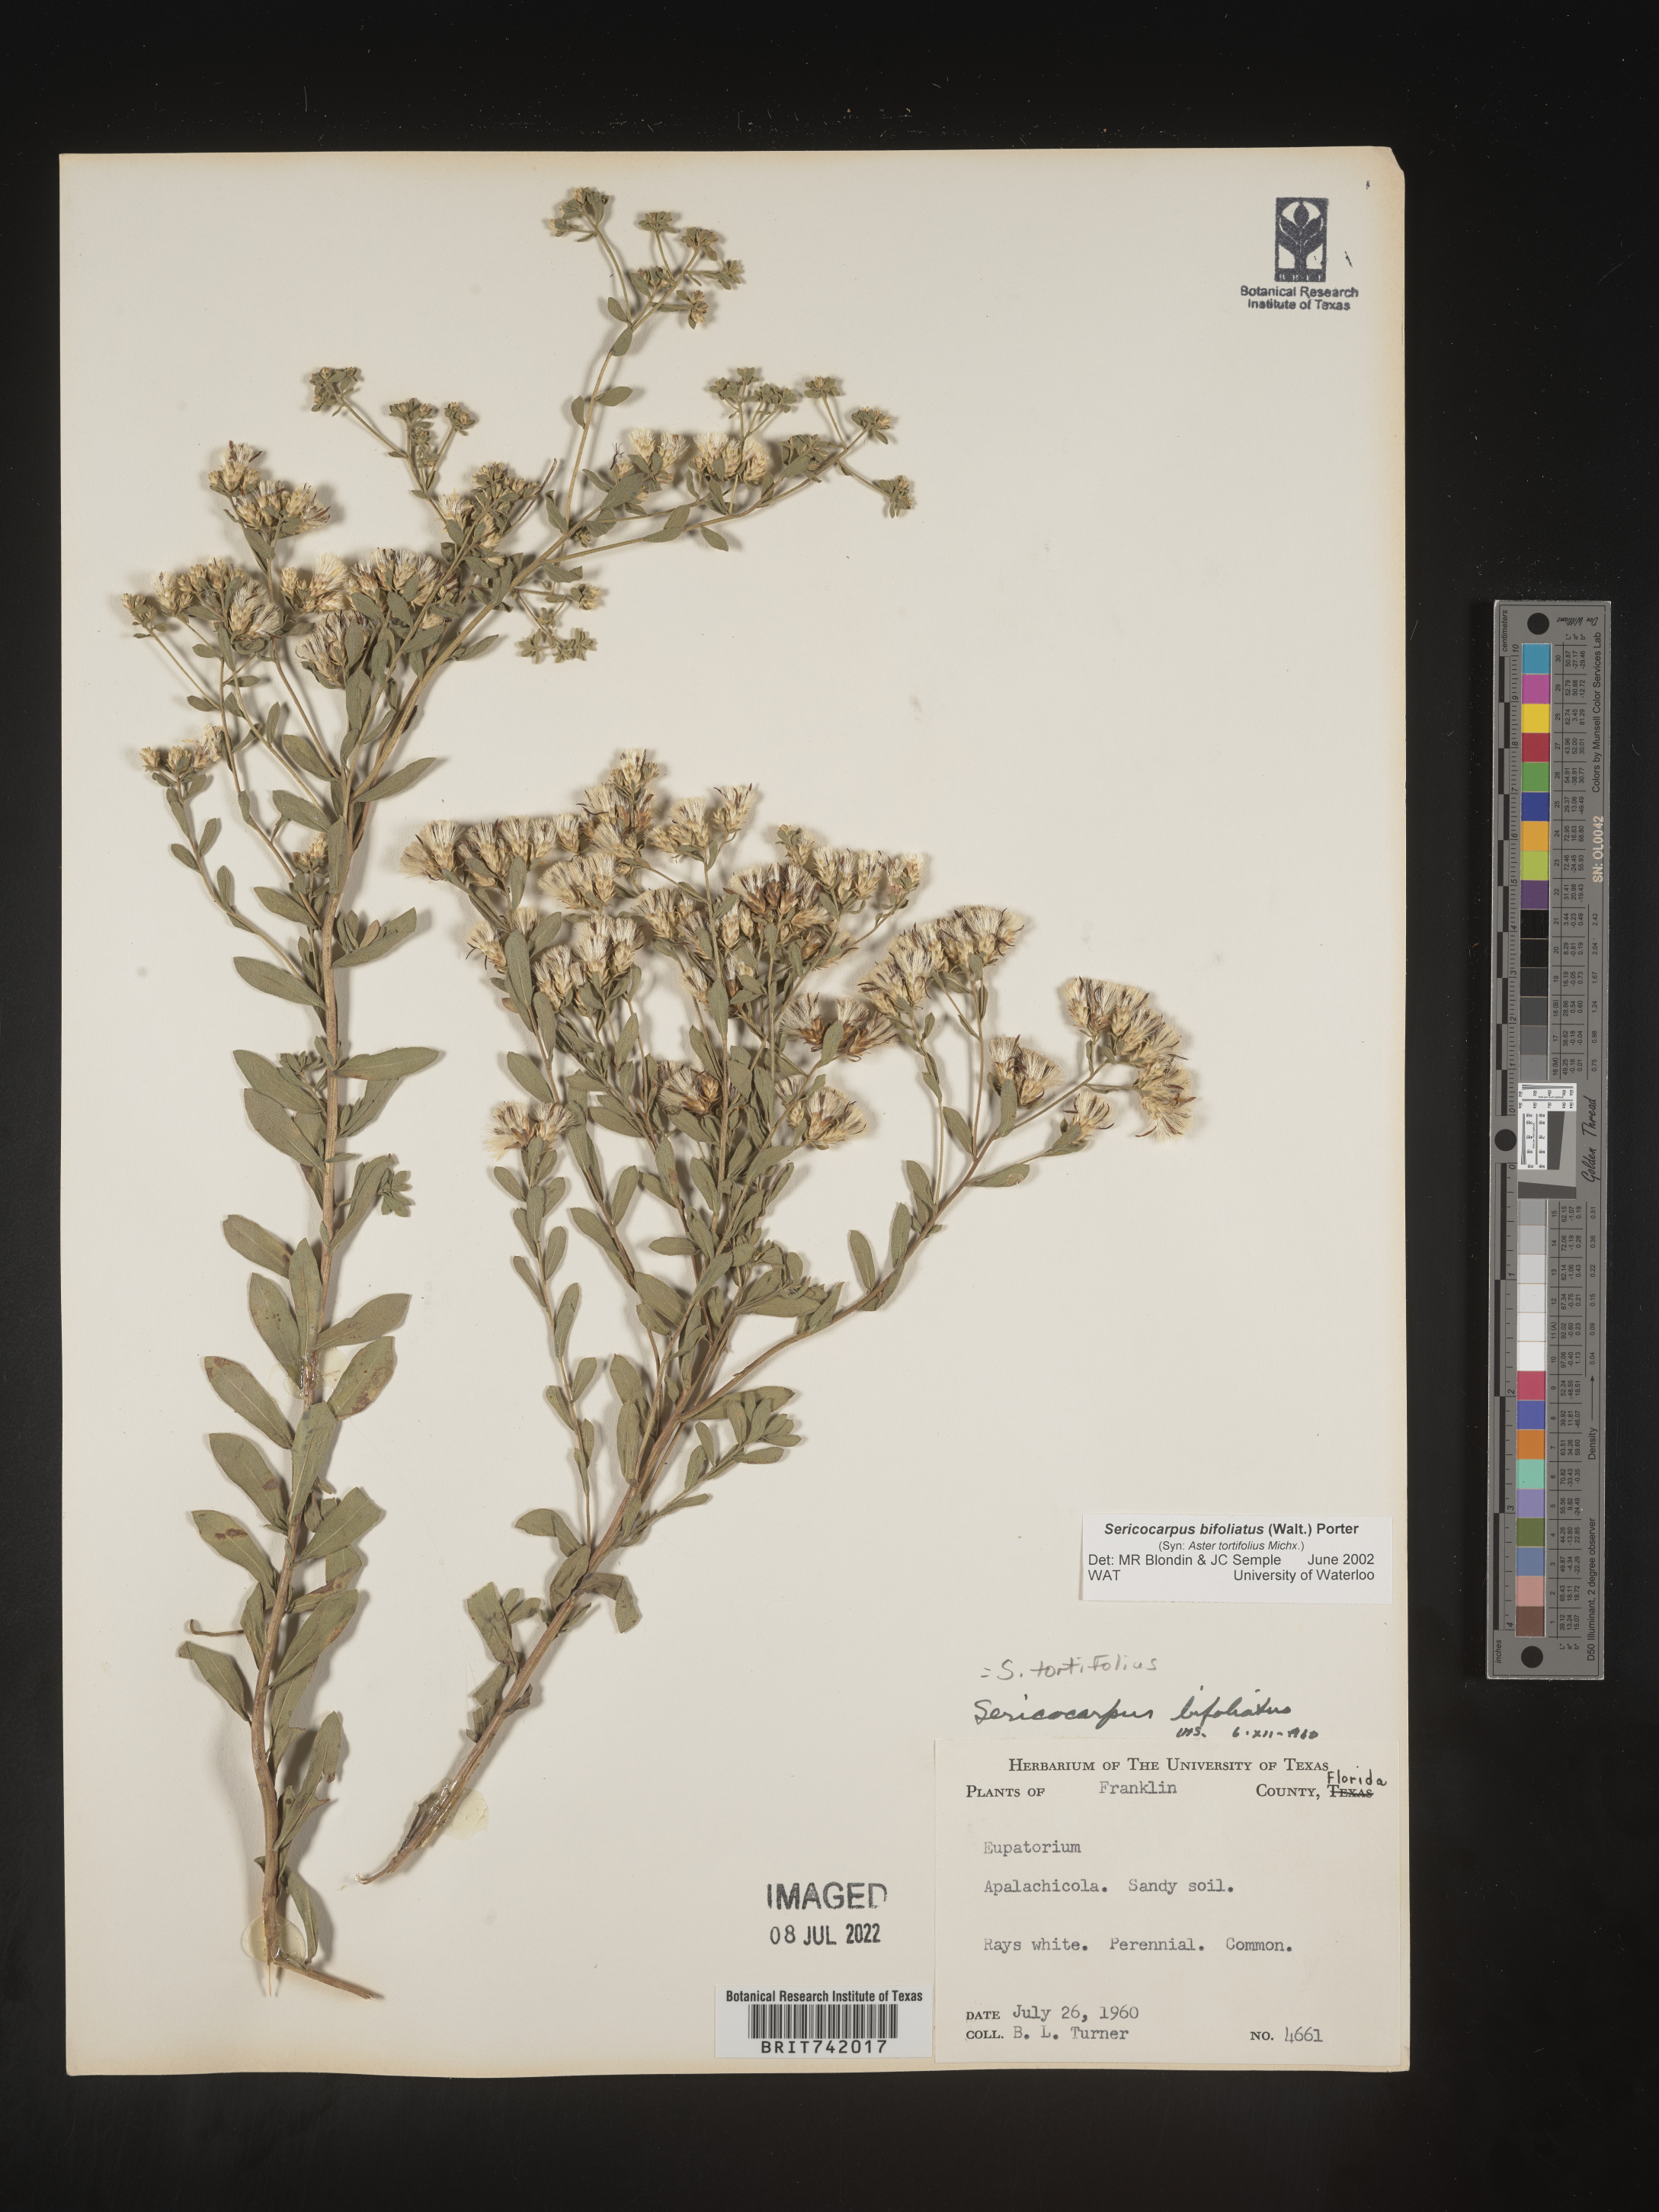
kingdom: Plantae
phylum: Tracheophyta
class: Magnoliopsida
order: Asterales
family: Asteraceae
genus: Sericocarpus
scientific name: Sericocarpus tortifolius
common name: Dixie aster
